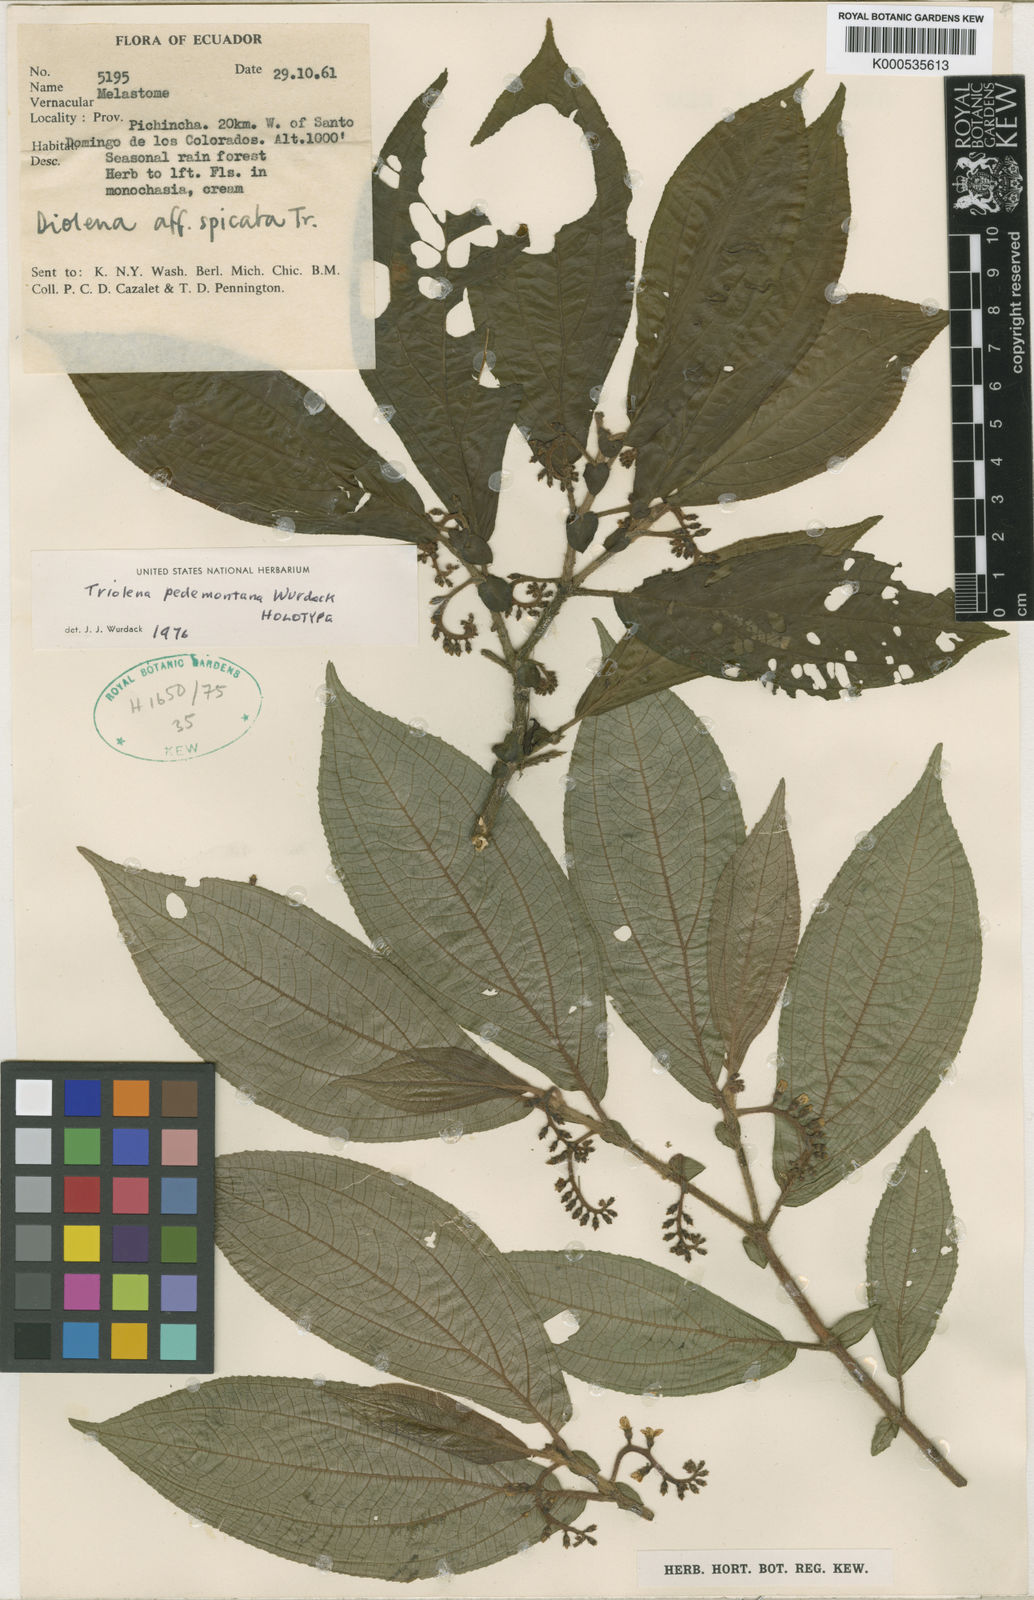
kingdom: Plantae
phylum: Tracheophyta
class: Magnoliopsida
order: Myrtales
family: Melastomataceae
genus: Triolena
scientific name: Triolena pedemontana
